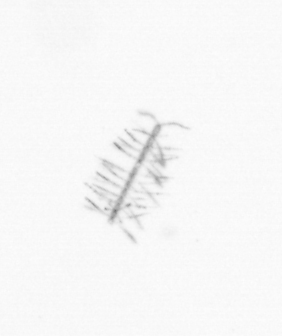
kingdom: Chromista
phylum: Ochrophyta
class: Bacillariophyceae
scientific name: Bacillariophyceae
